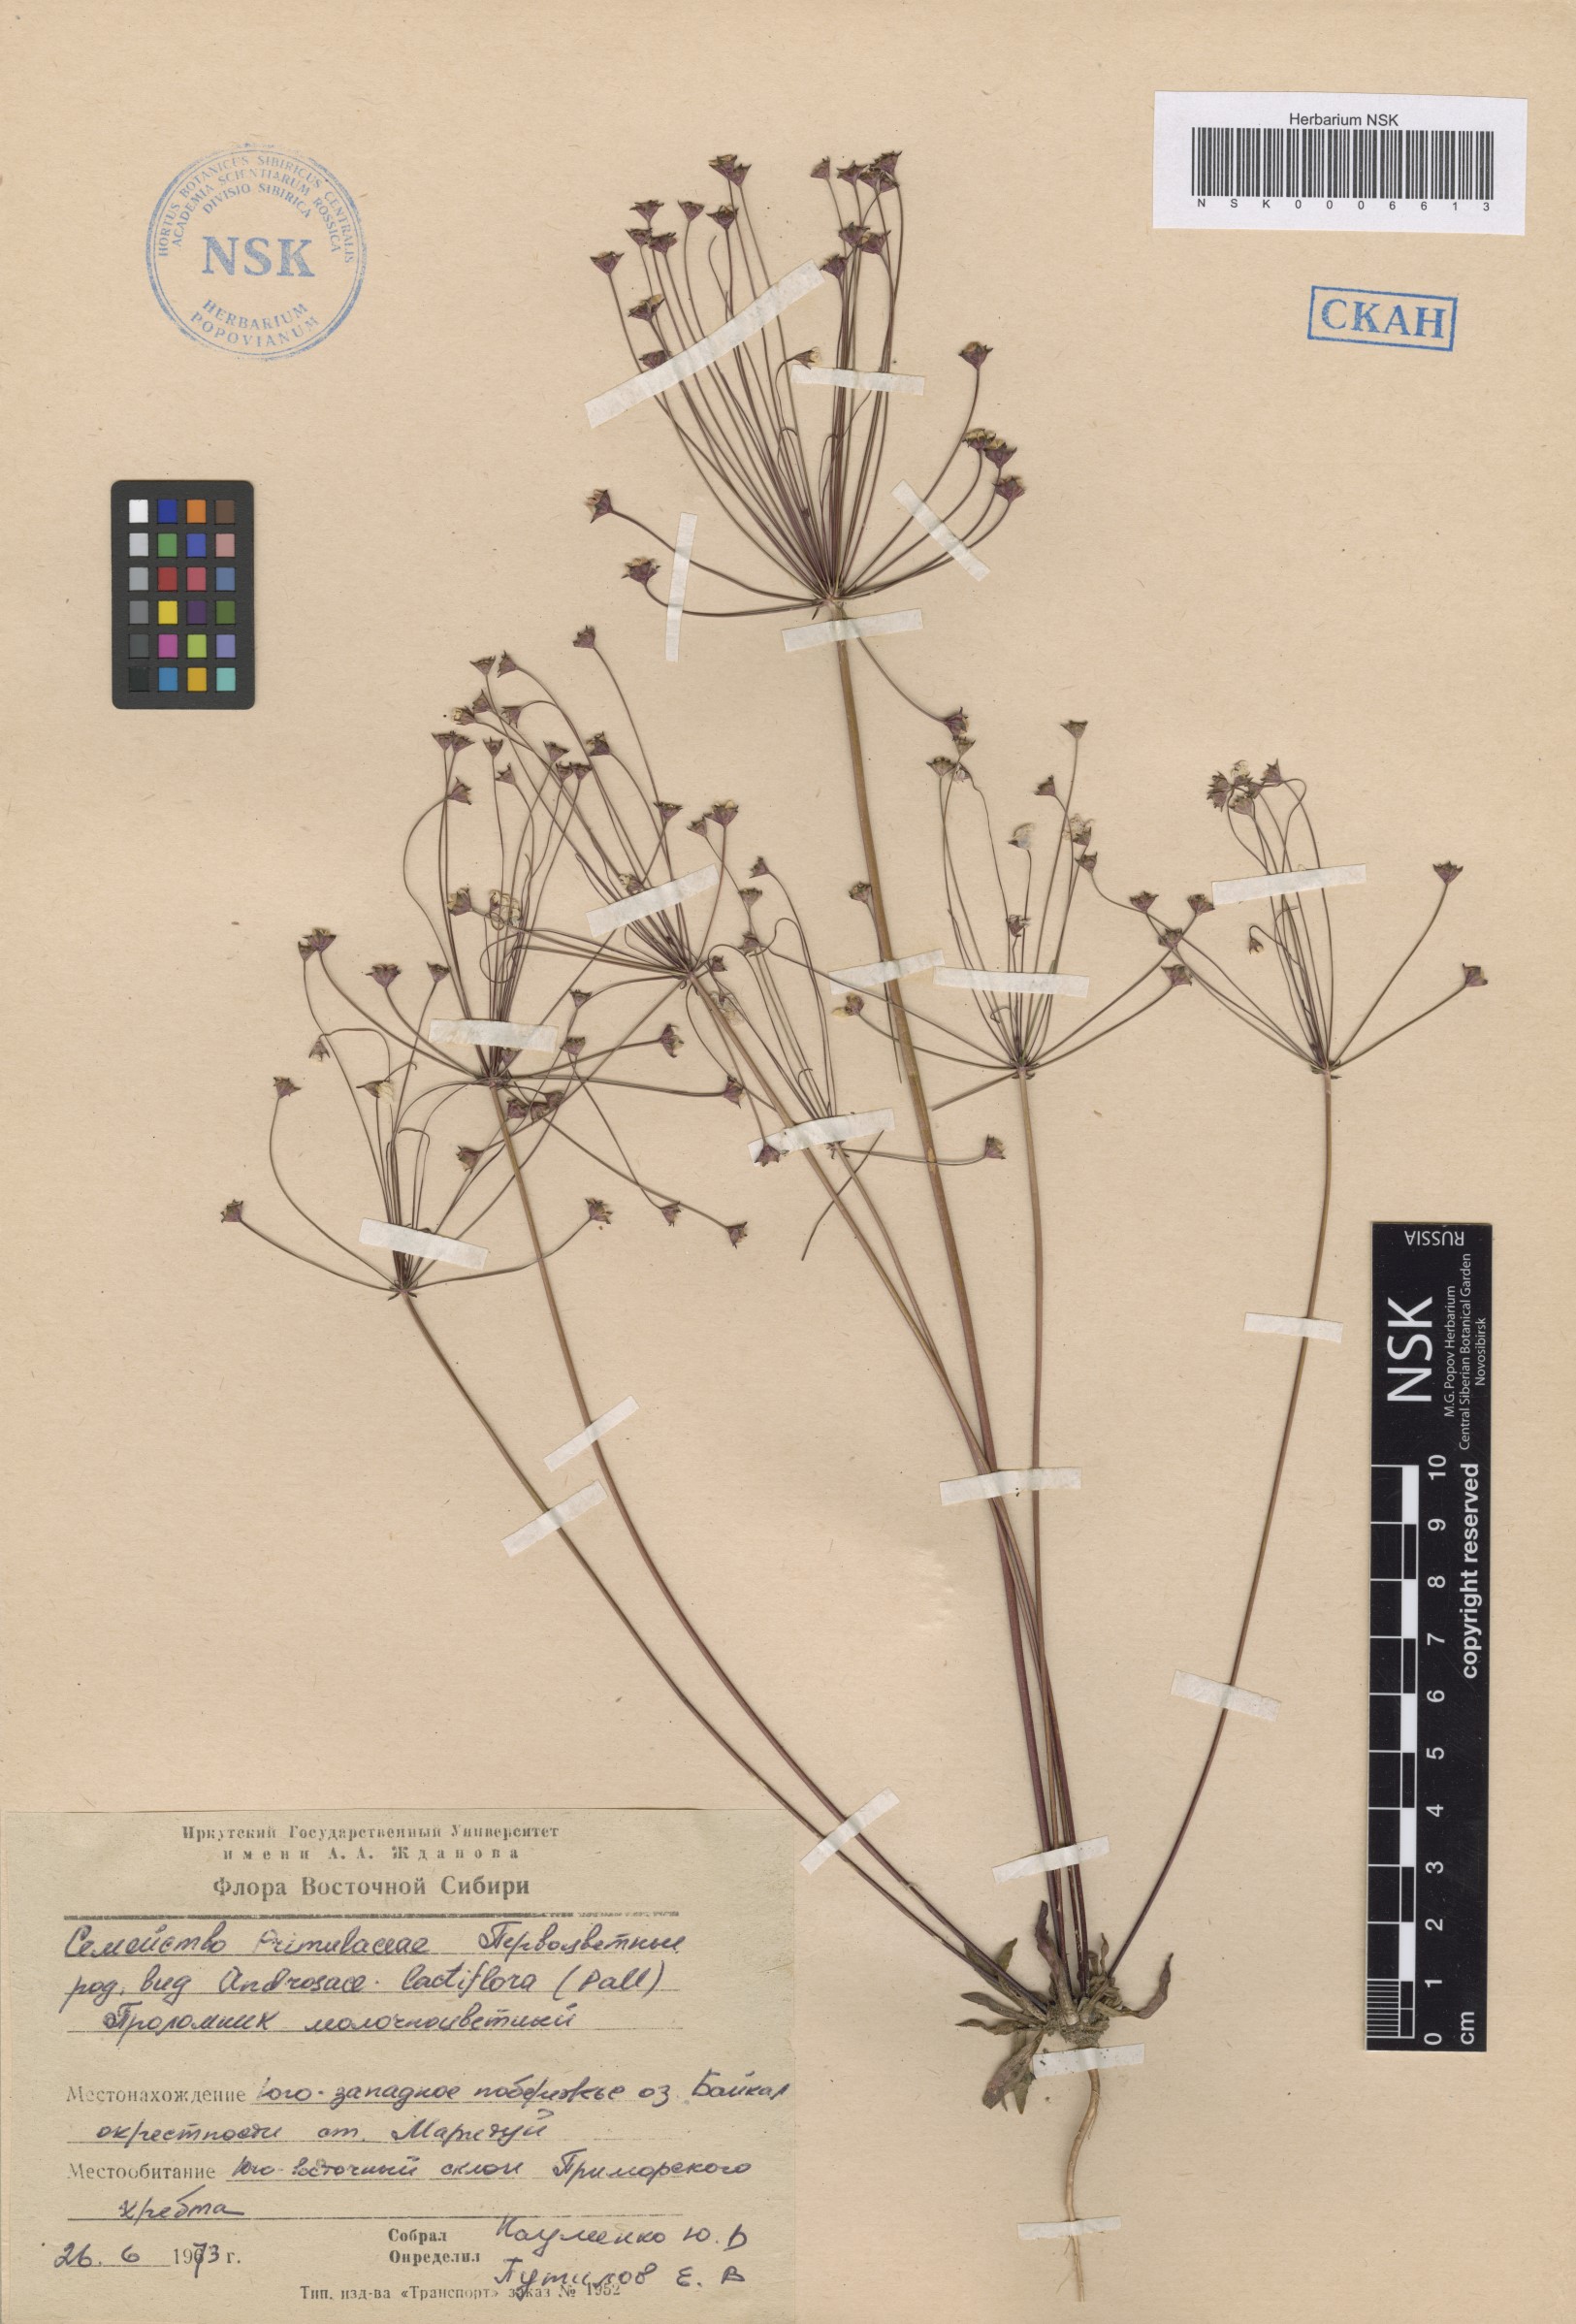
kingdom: Plantae
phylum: Tracheophyta
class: Magnoliopsida
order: Ericales
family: Primulaceae
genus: Androsace
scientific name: Androsace lactiflora
